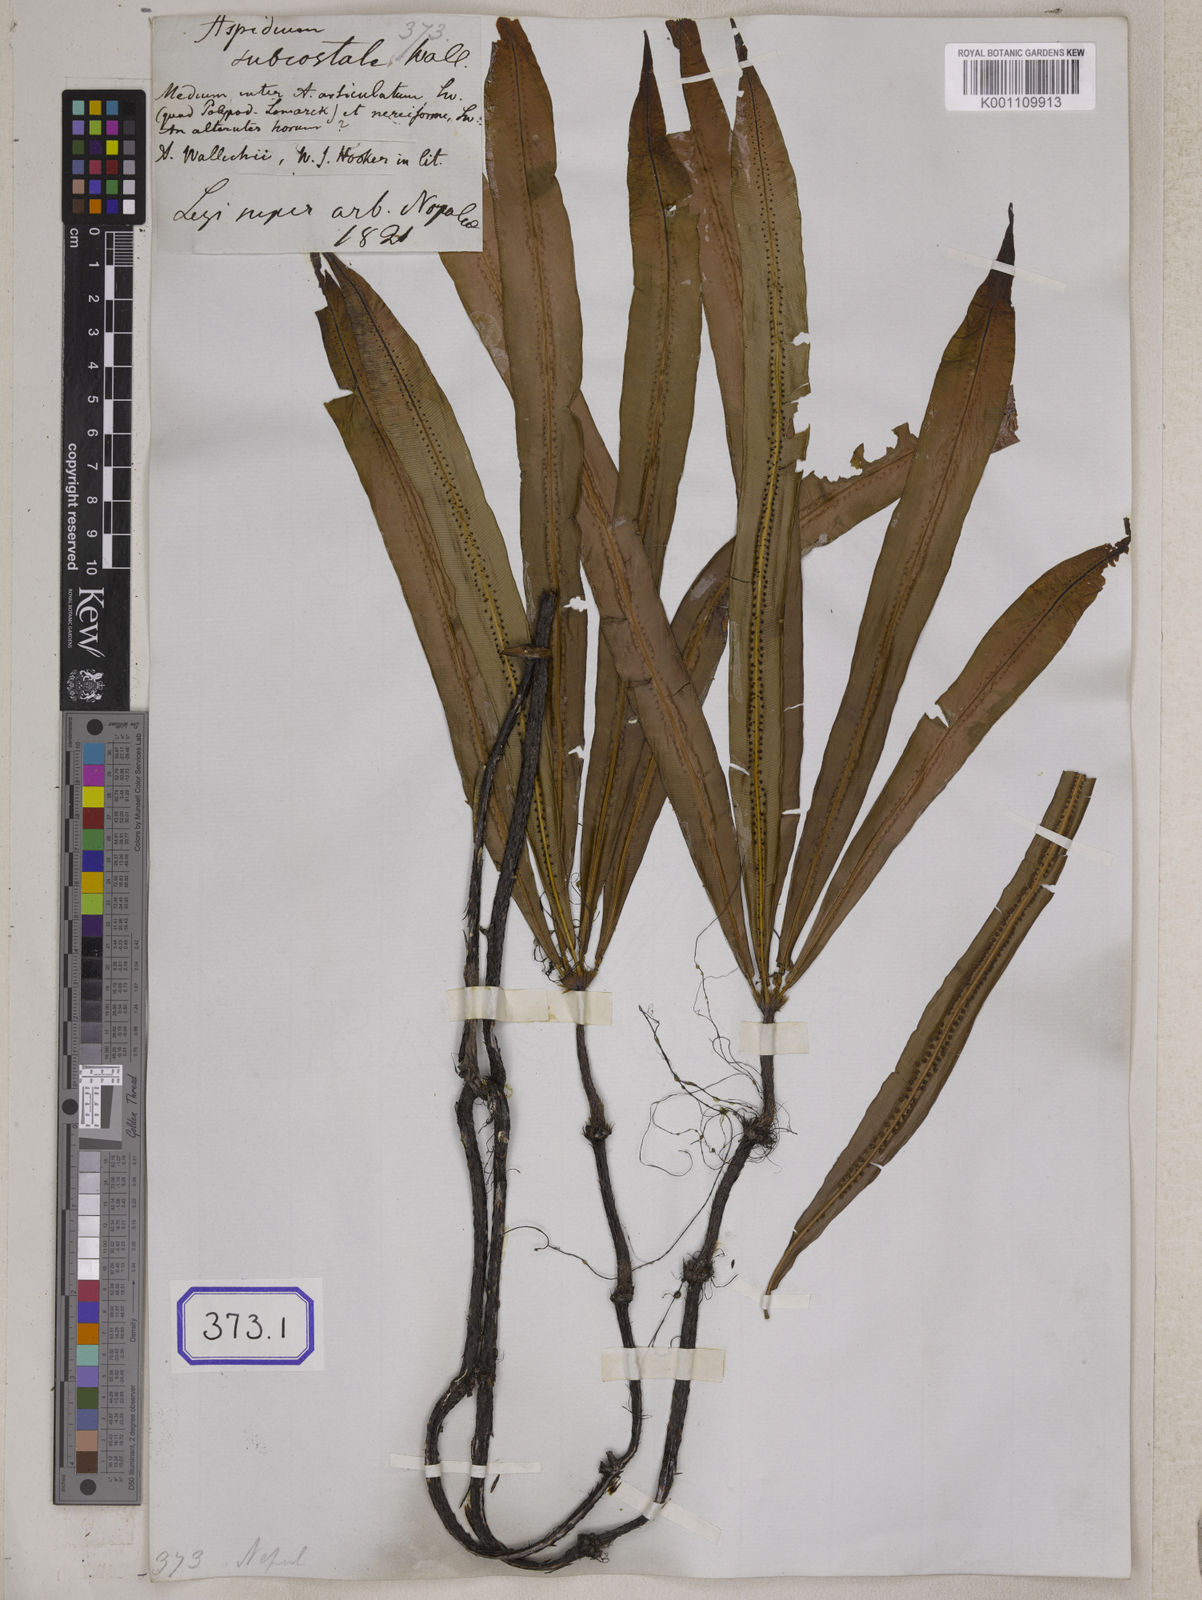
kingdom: Plantae
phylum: Tracheophyta
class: Polypodiopsida
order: Polypodiales
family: Tectariaceae
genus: Tectaria
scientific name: Tectaria Aspidium spec
